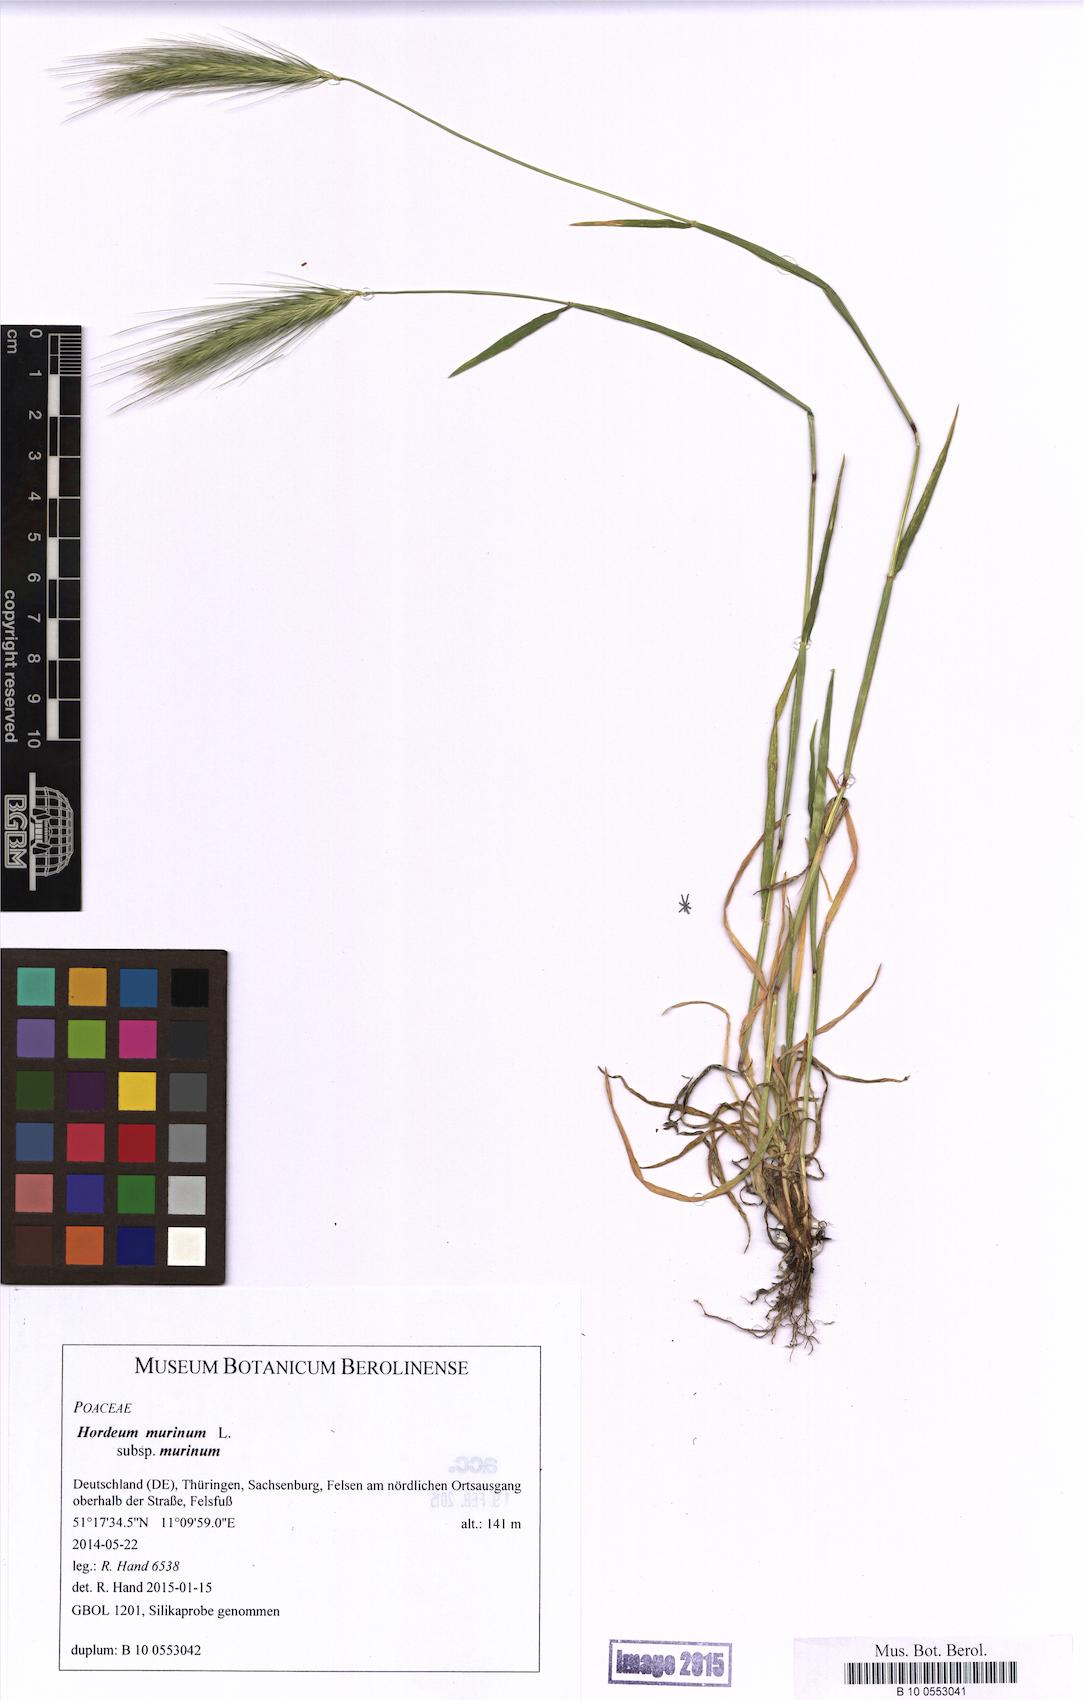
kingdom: Plantae
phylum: Tracheophyta
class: Liliopsida
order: Poales
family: Poaceae
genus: Hordeum
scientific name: Hordeum murinum
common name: Wall barley
